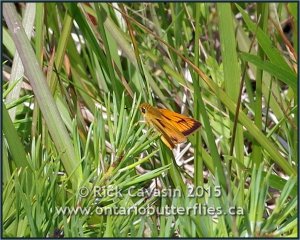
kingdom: Animalia
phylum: Arthropoda
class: Insecta
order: Lepidoptera
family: Hesperiidae
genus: Atrytone
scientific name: Atrytone delaware
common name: Delaware Skipper
